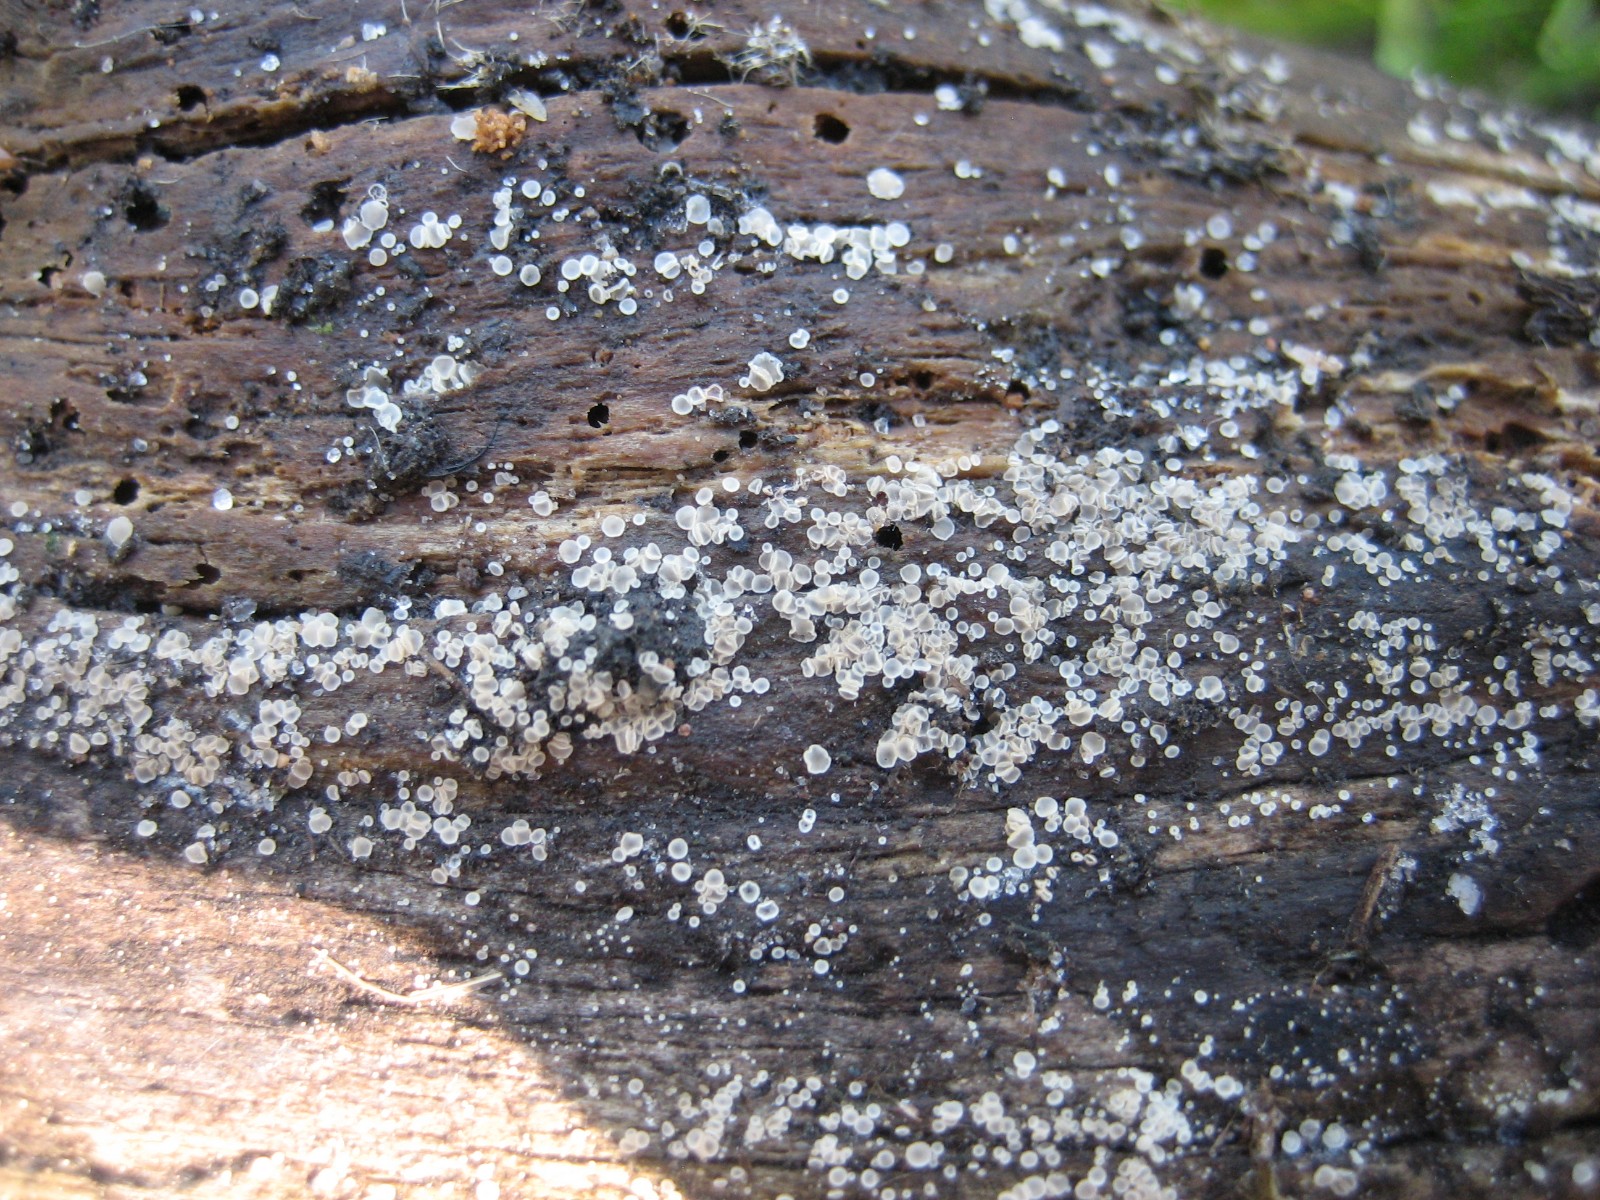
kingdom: Fungi
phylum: Ascomycota
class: Leotiomycetes
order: Helotiales
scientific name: Helotiales
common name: stilkskiveordenen
